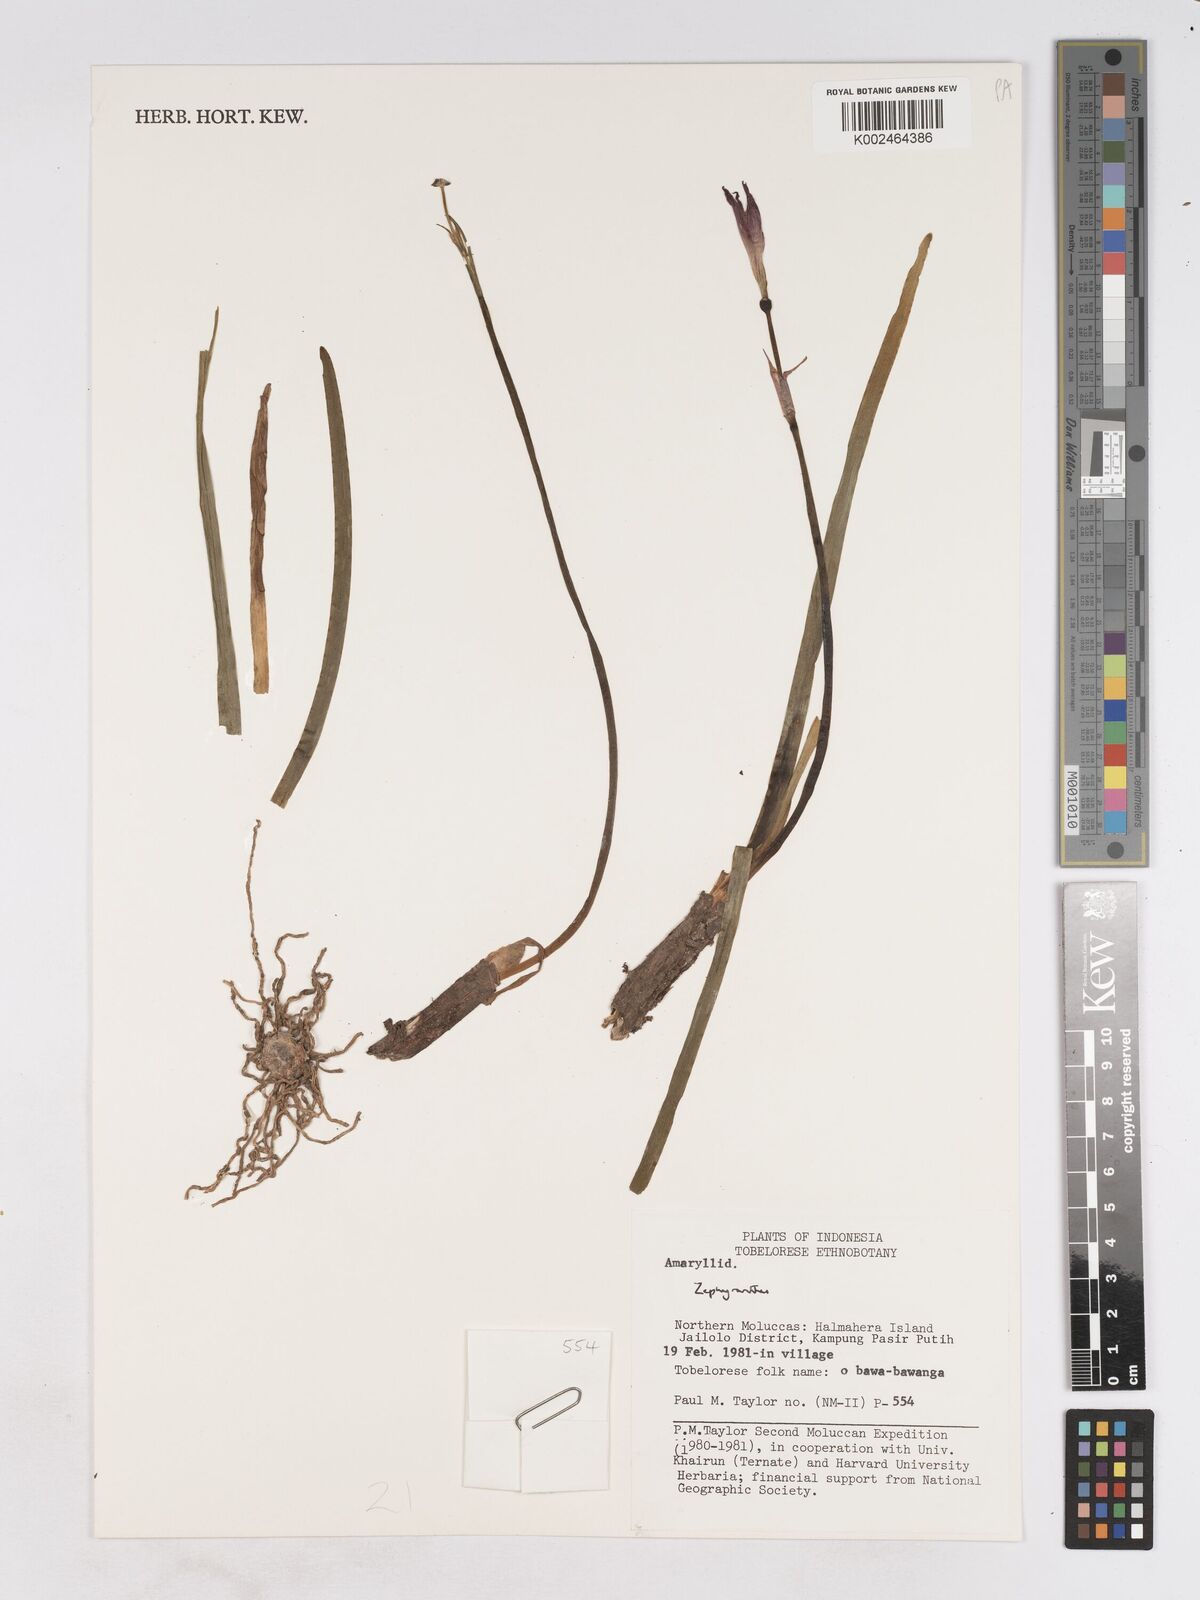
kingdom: Plantae
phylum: Tracheophyta
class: Liliopsida
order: Asparagales
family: Amaryllidaceae
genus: Zephyranthes
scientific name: Zephyranthes
